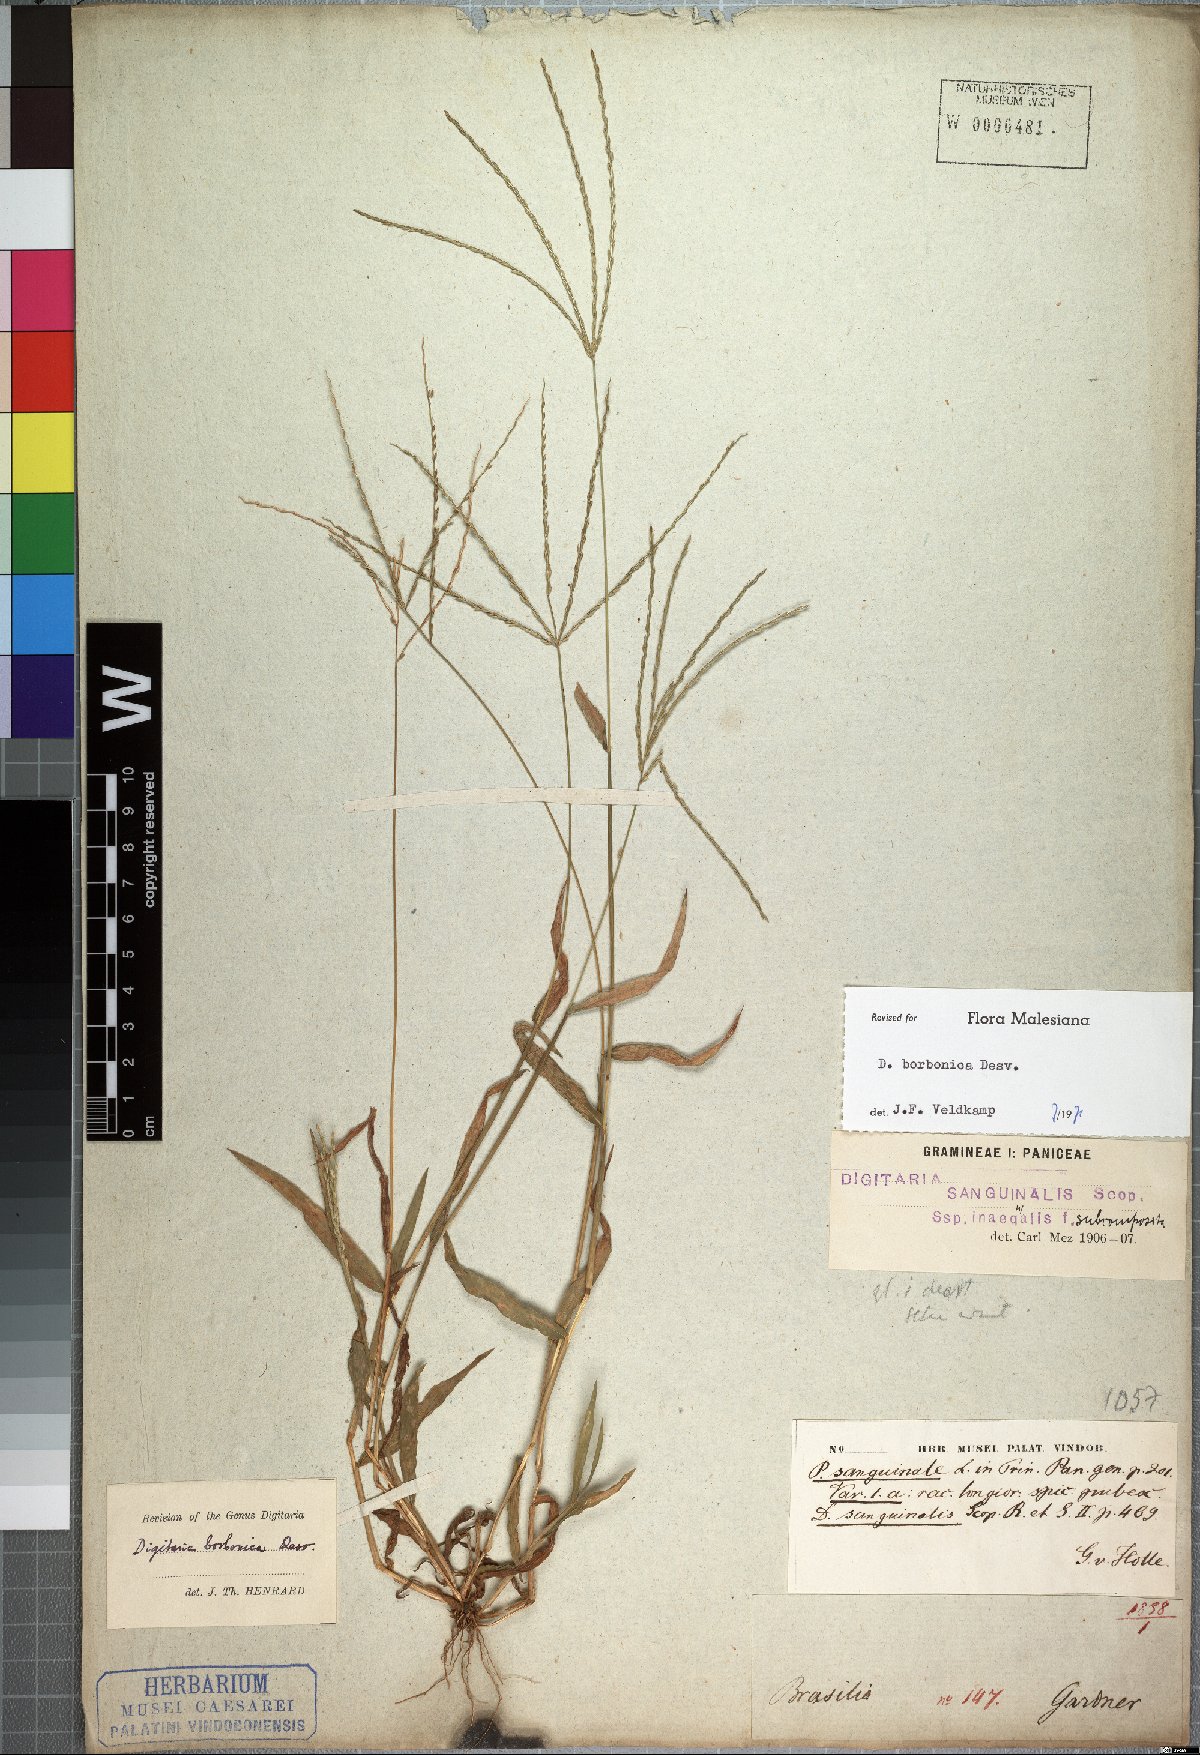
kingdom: Plantae
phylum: Tracheophyta
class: Liliopsida
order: Poales
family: Poaceae
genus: Digitaria
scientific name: Digitaria nuda
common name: Naked crabgrass
